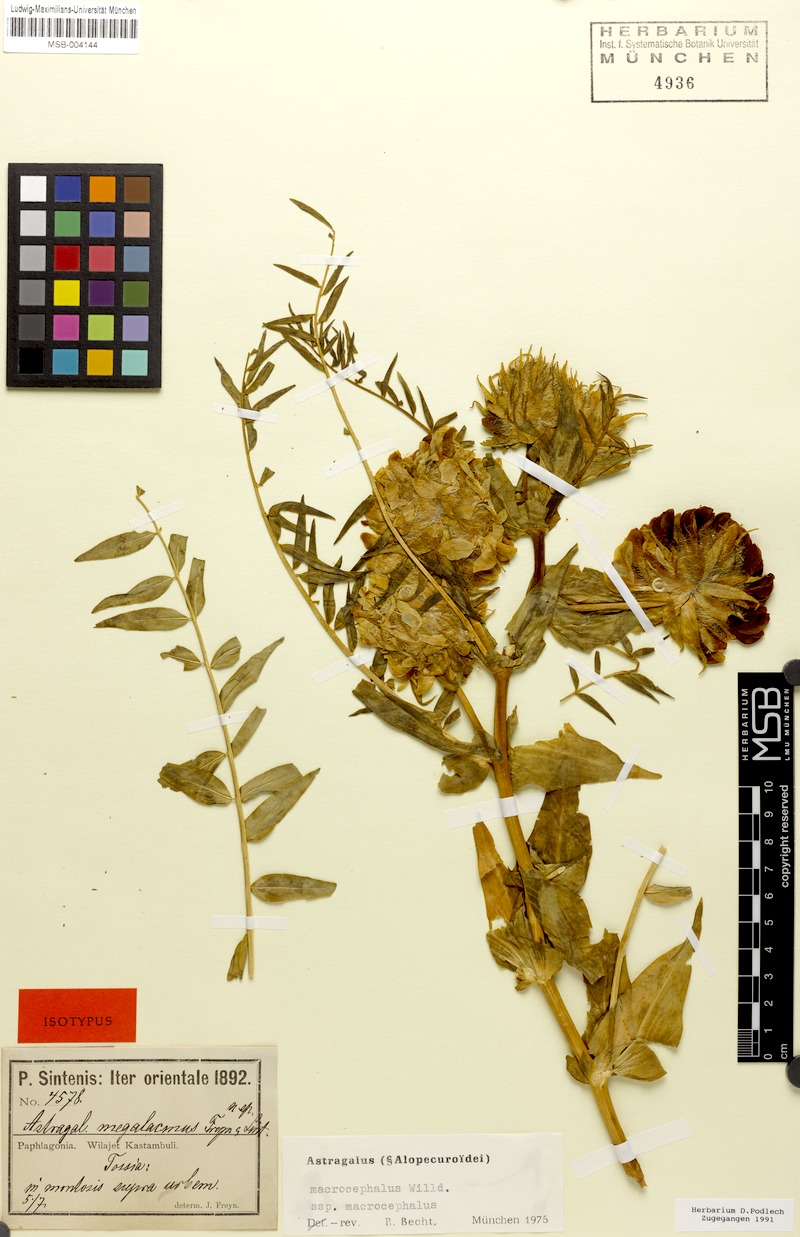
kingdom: Plantae
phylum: Tracheophyta
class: Magnoliopsida
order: Fabales
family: Fabaceae
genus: Astragalus
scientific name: Astragalus macrocephalus
